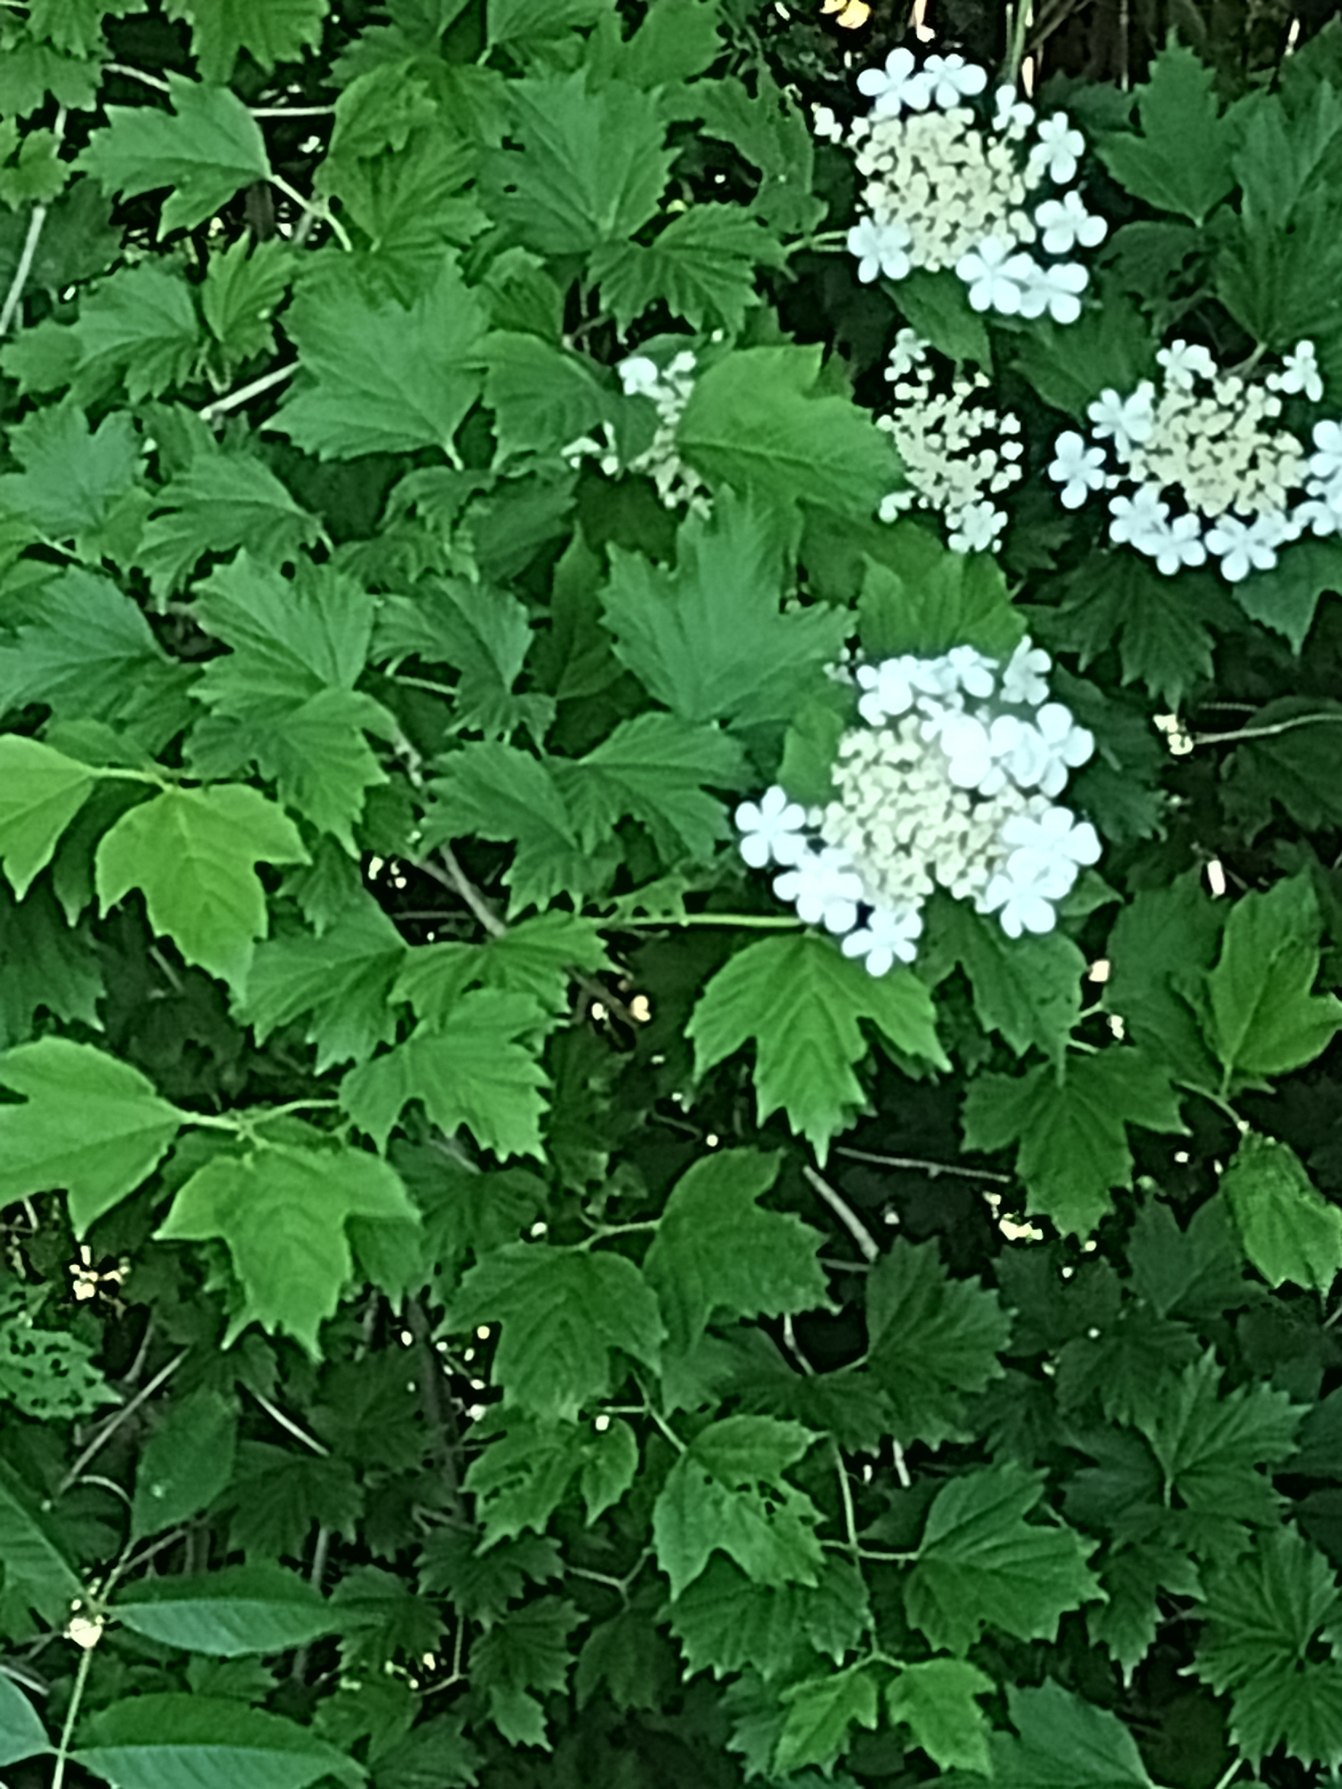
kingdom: Plantae
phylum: Tracheophyta
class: Magnoliopsida
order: Dipsacales
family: Viburnaceae
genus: Viburnum
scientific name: Viburnum opulus
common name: Kvalkved
